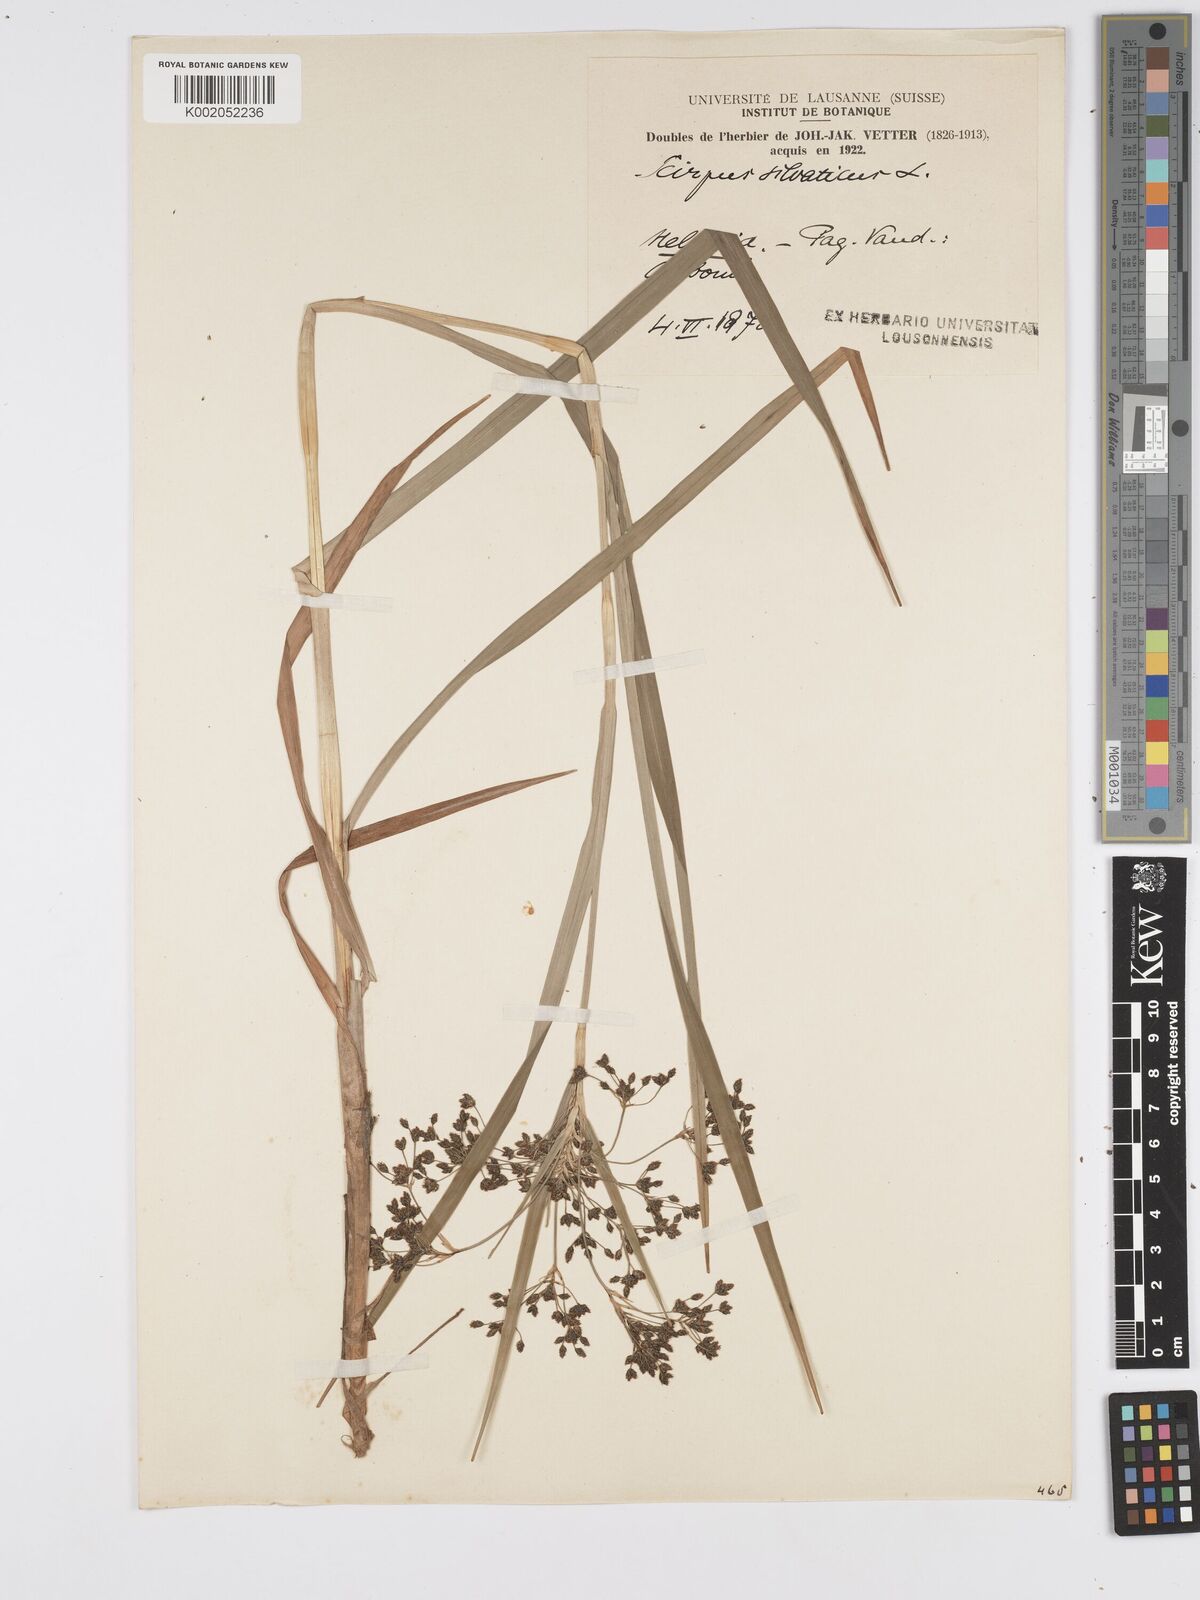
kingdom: Plantae
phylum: Tracheophyta
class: Liliopsida
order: Poales
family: Cyperaceae
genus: Scirpus
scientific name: Scirpus sylvaticus
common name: Wood club-rush
